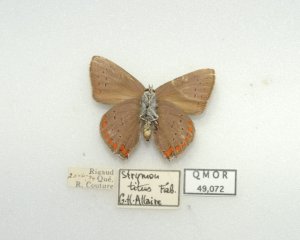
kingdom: Animalia
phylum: Arthropoda
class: Insecta
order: Lepidoptera
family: Lycaenidae
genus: Harkenclenus
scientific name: Harkenclenus titus
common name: Coral Hairstreak
